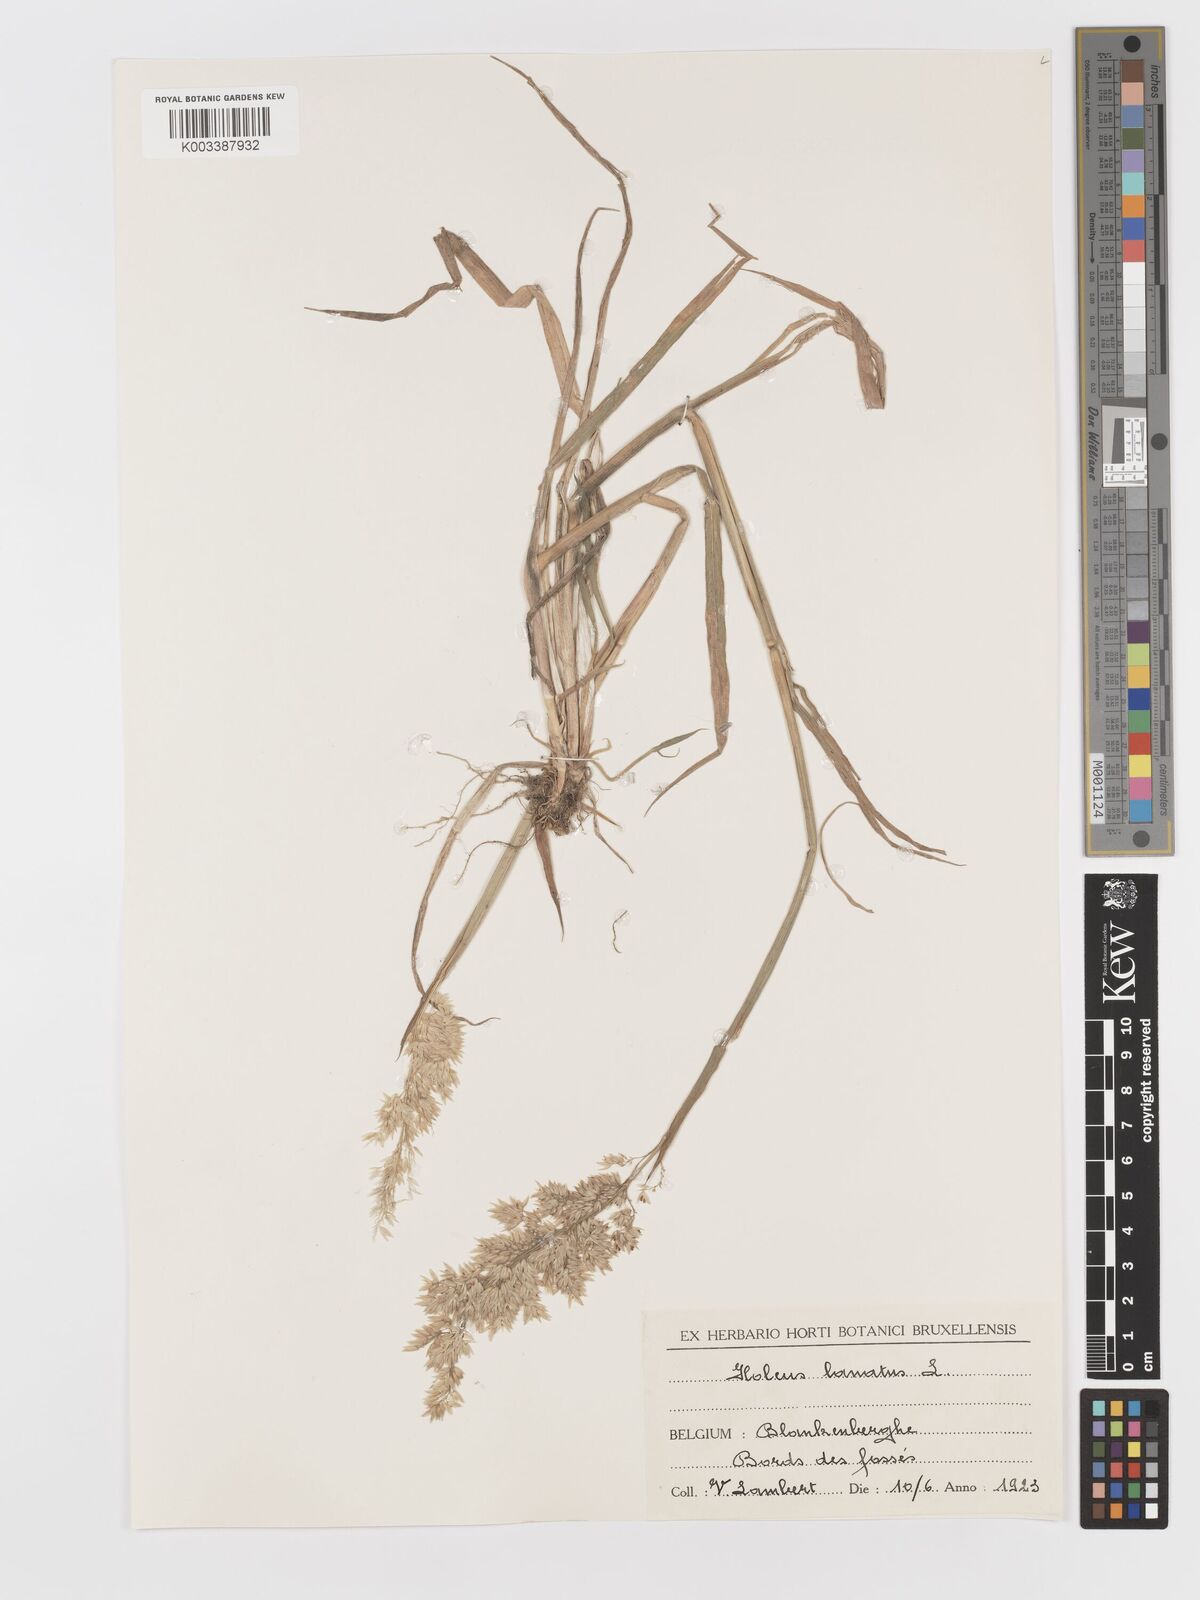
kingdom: Plantae
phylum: Tracheophyta
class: Liliopsida
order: Poales
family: Poaceae
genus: Holcus
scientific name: Holcus lanatus
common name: Yorkshire-fog
